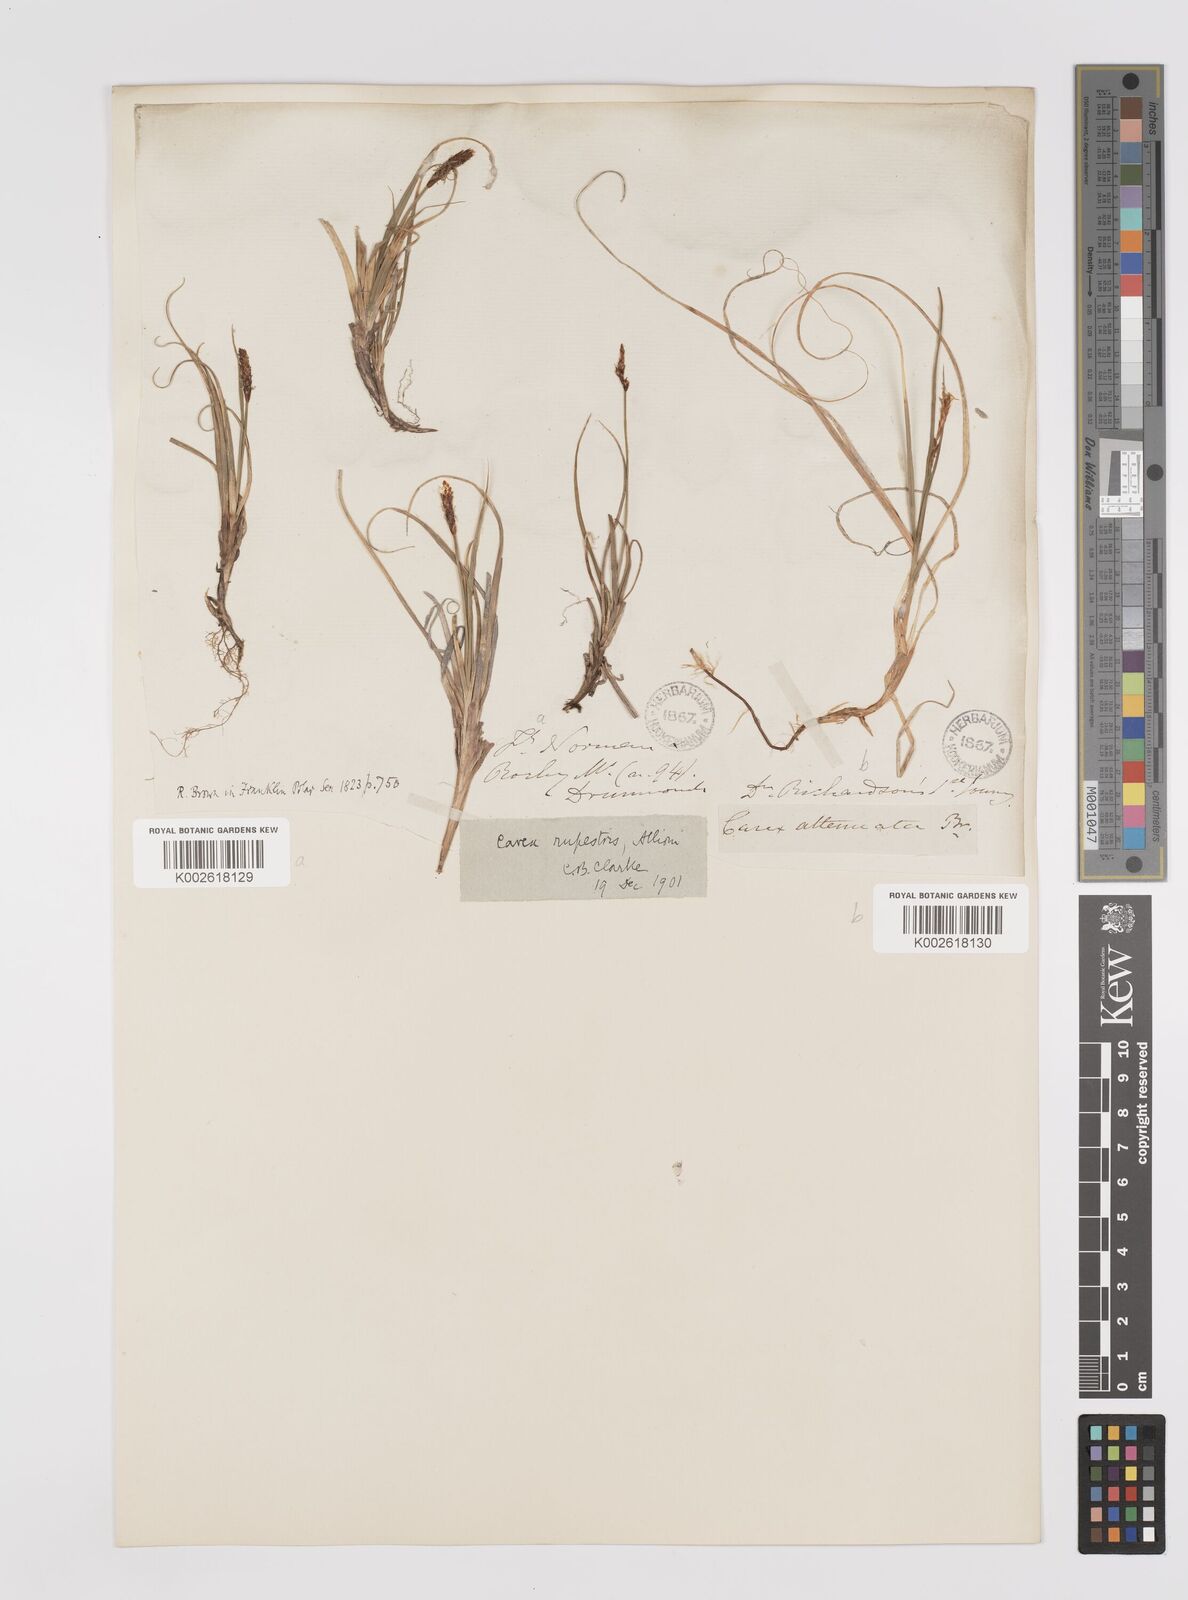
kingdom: Plantae
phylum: Tracheophyta
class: Liliopsida
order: Poales
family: Cyperaceae
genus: Carex
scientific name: Carex rupestris
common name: Rock sedge
